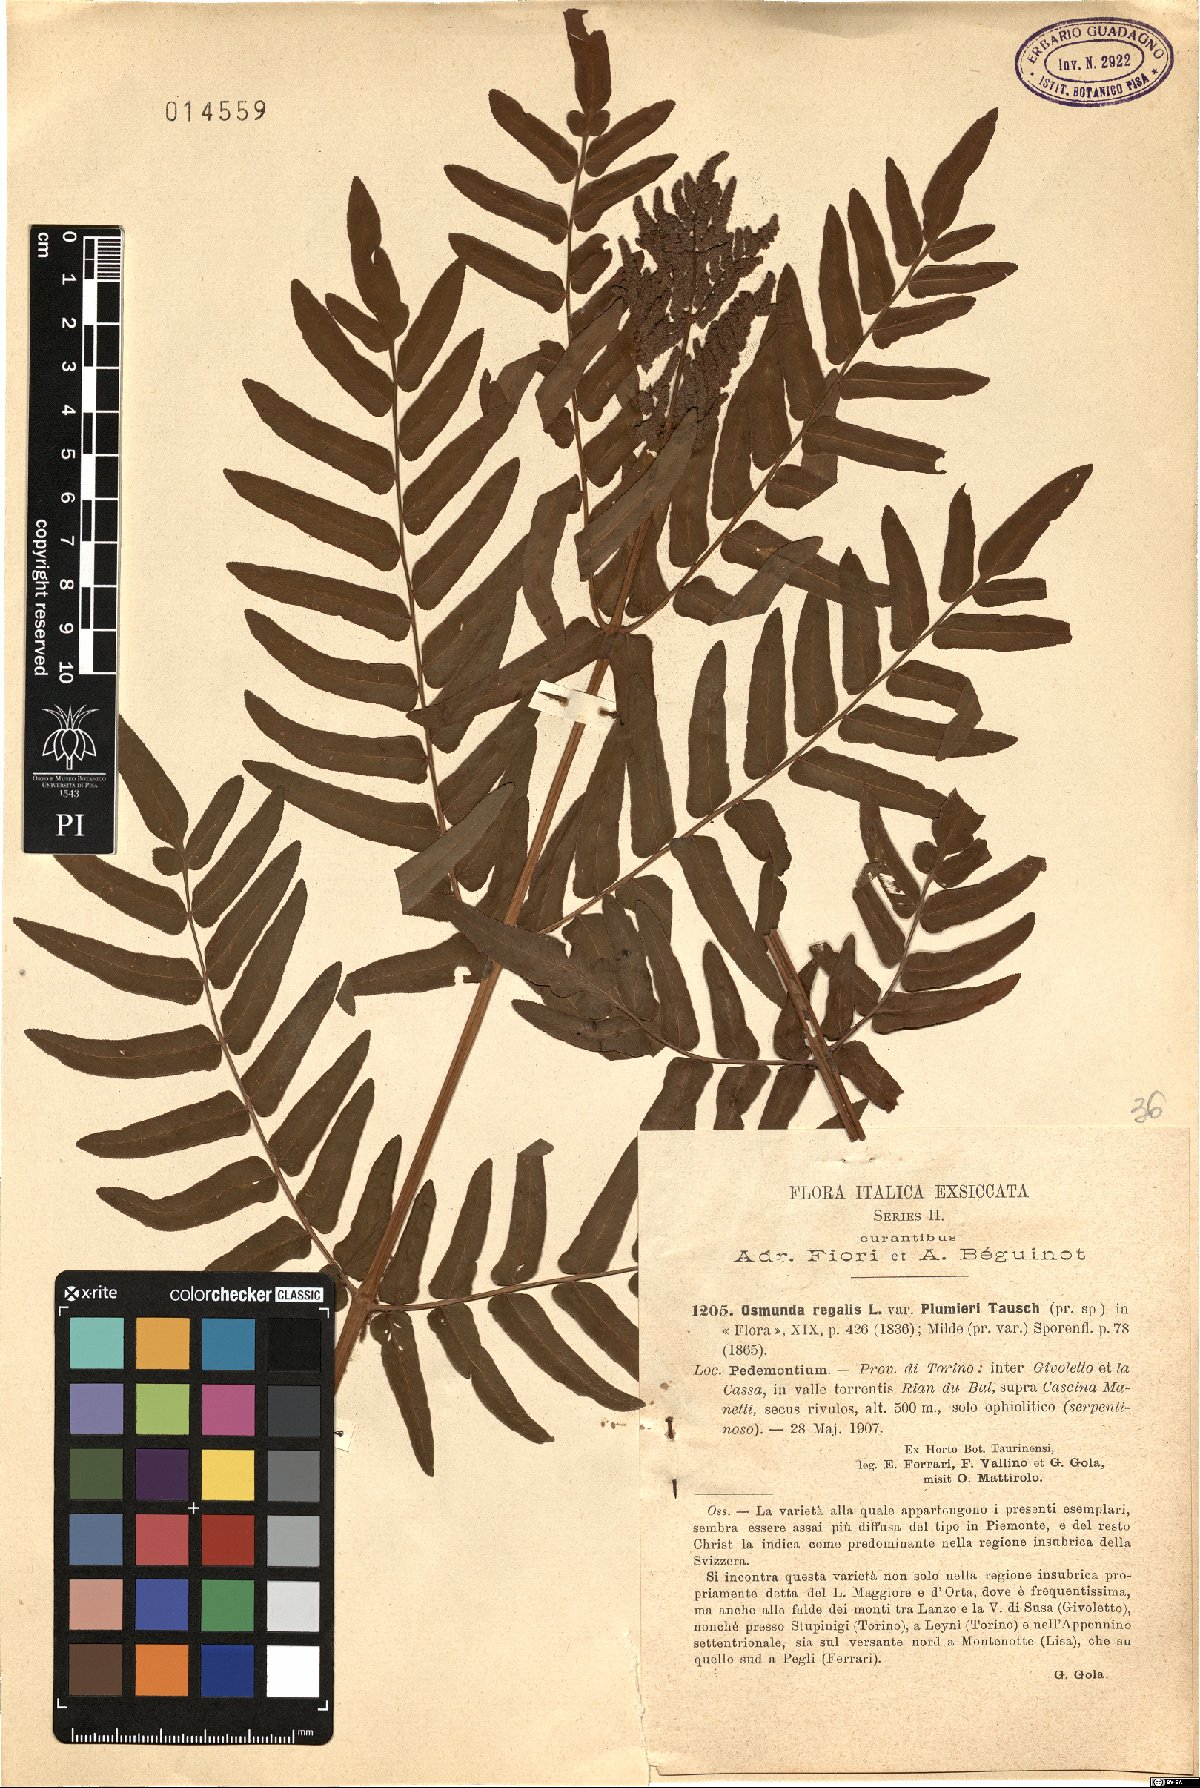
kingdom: Plantae
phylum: Tracheophyta
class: Polypodiopsida
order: Osmundales
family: Osmundaceae
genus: Osmunda
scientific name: Osmunda regalis
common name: Royal fern
